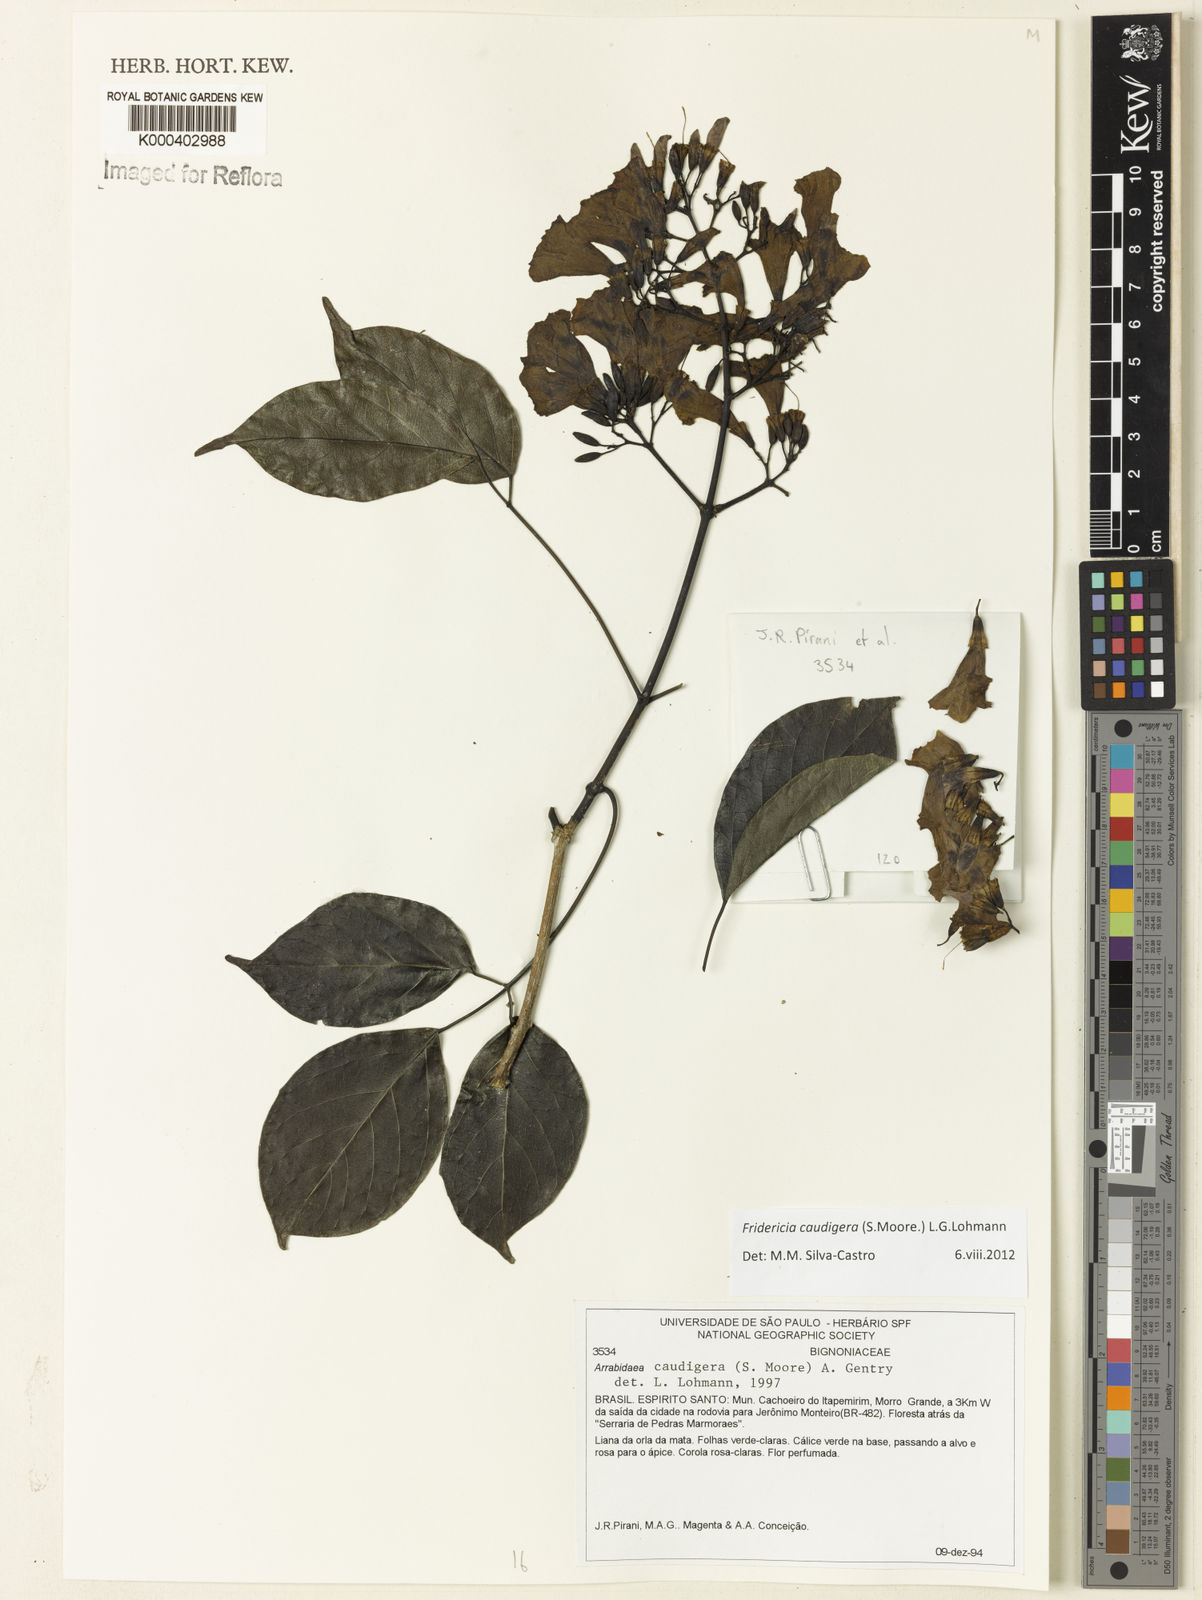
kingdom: Plantae
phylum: Tracheophyta
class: Magnoliopsida
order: Lamiales
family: Bignoniaceae
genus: Fridericia
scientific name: Fridericia caudigera
